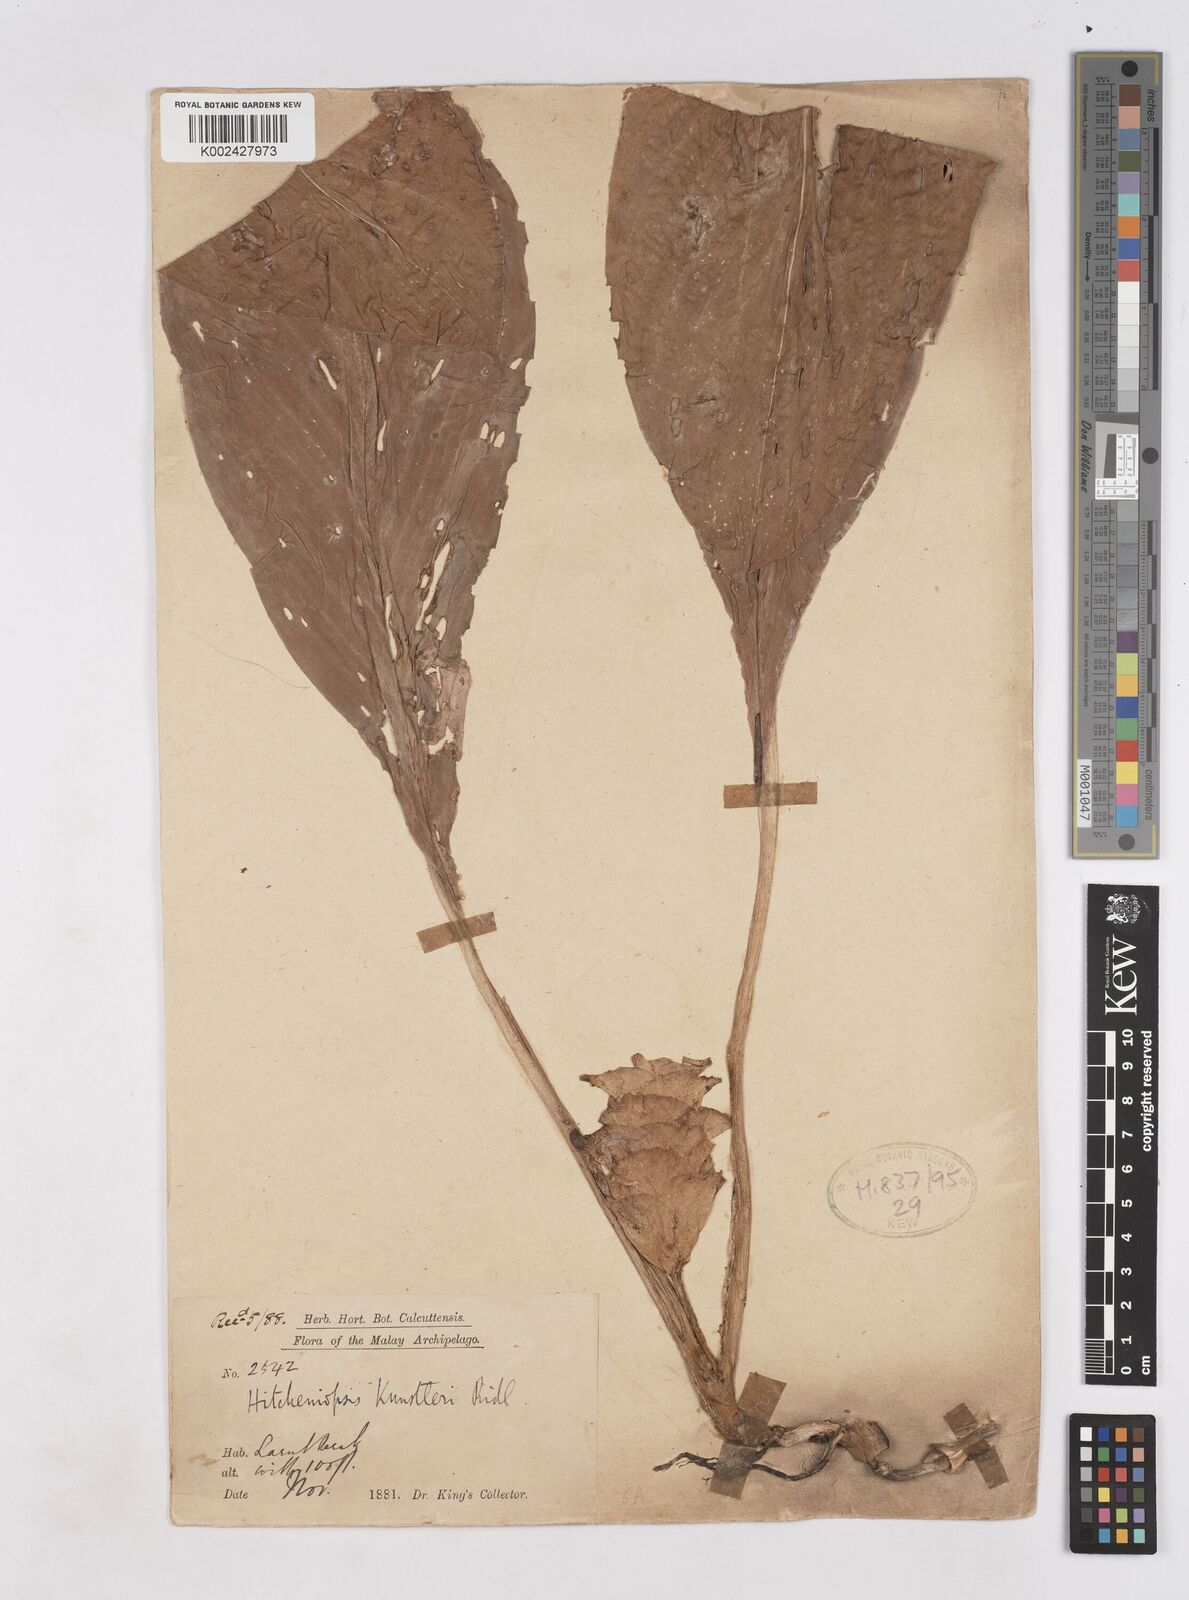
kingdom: Plantae
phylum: Tracheophyta
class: Liliopsida
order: Zingiberales
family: Zingiberaceae
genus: Scaphochlamys
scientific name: Scaphochlamys
